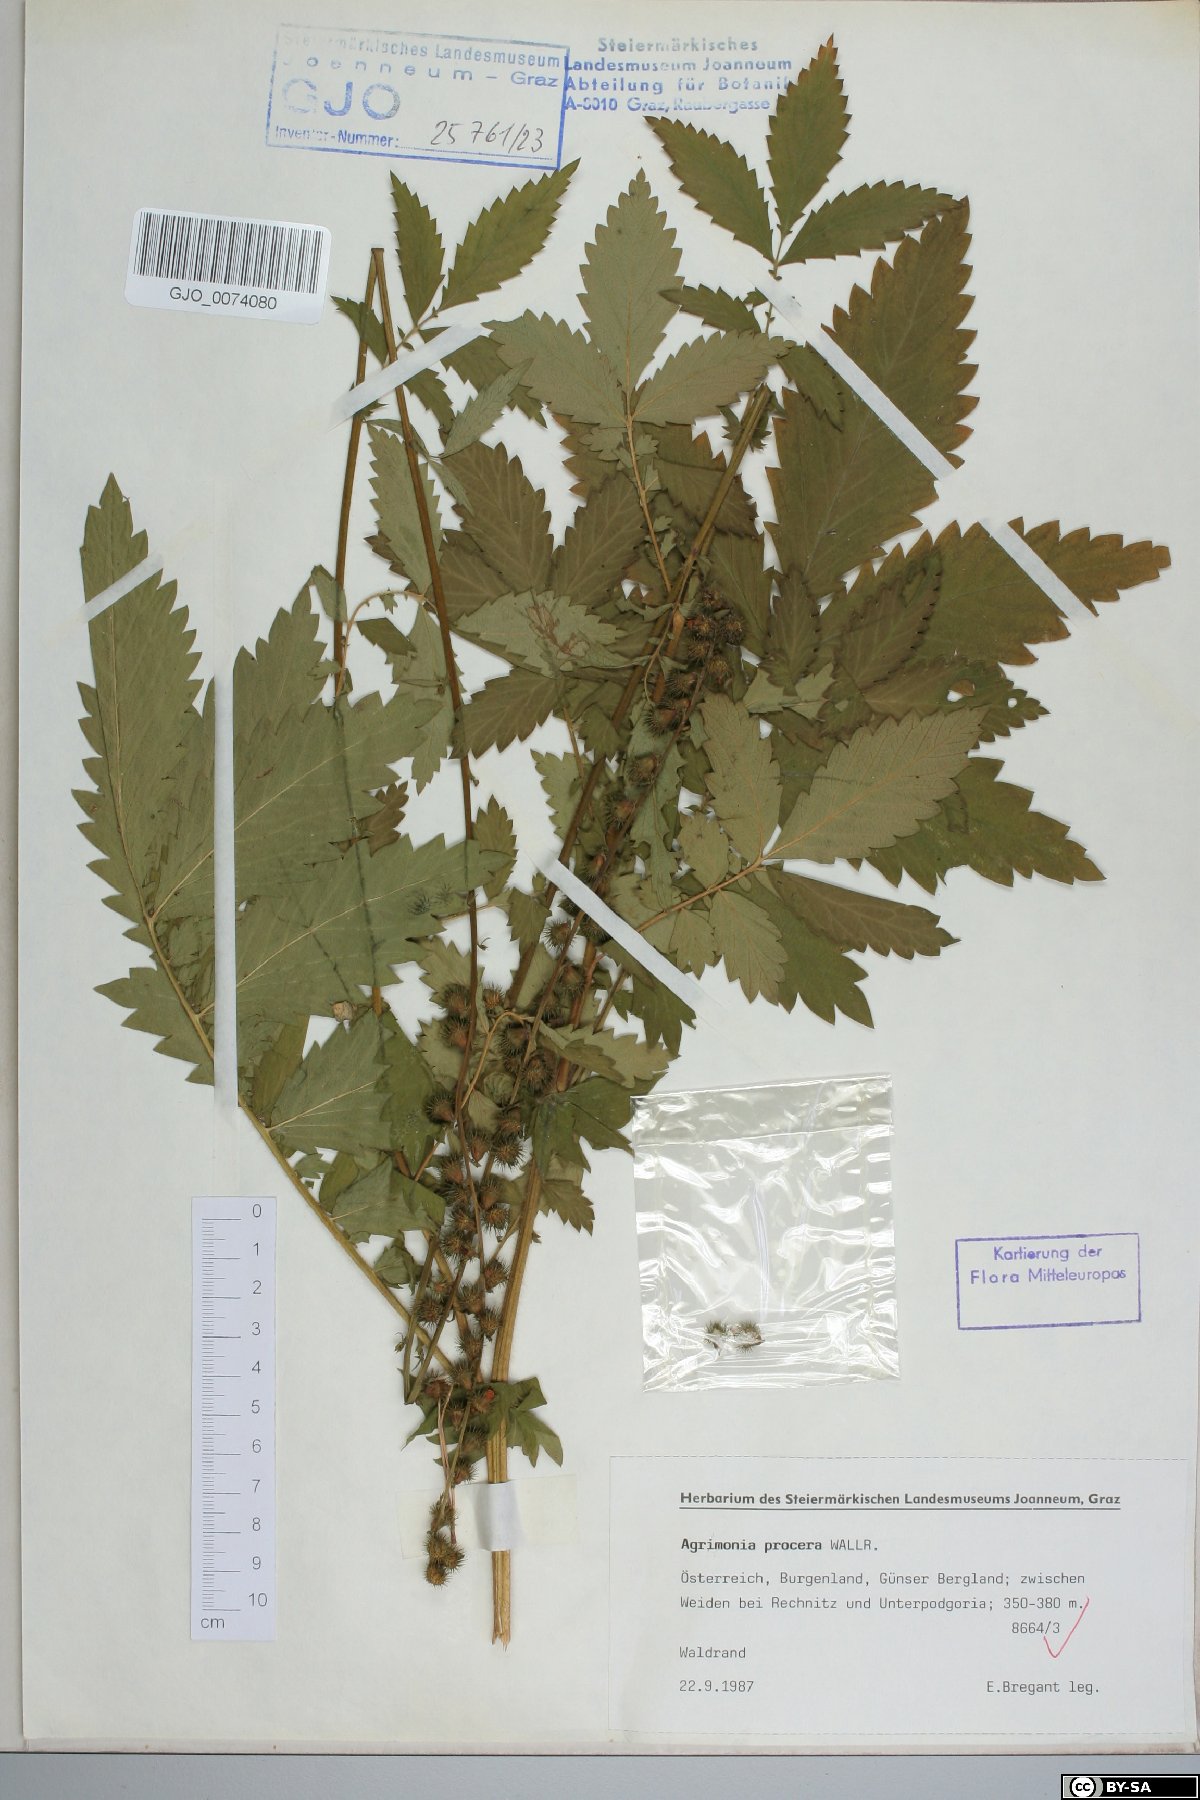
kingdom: Plantae
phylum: Tracheophyta
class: Magnoliopsida
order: Rosales
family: Rosaceae
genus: Agrimonia
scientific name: Agrimonia procera
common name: Fragrant agrimony
